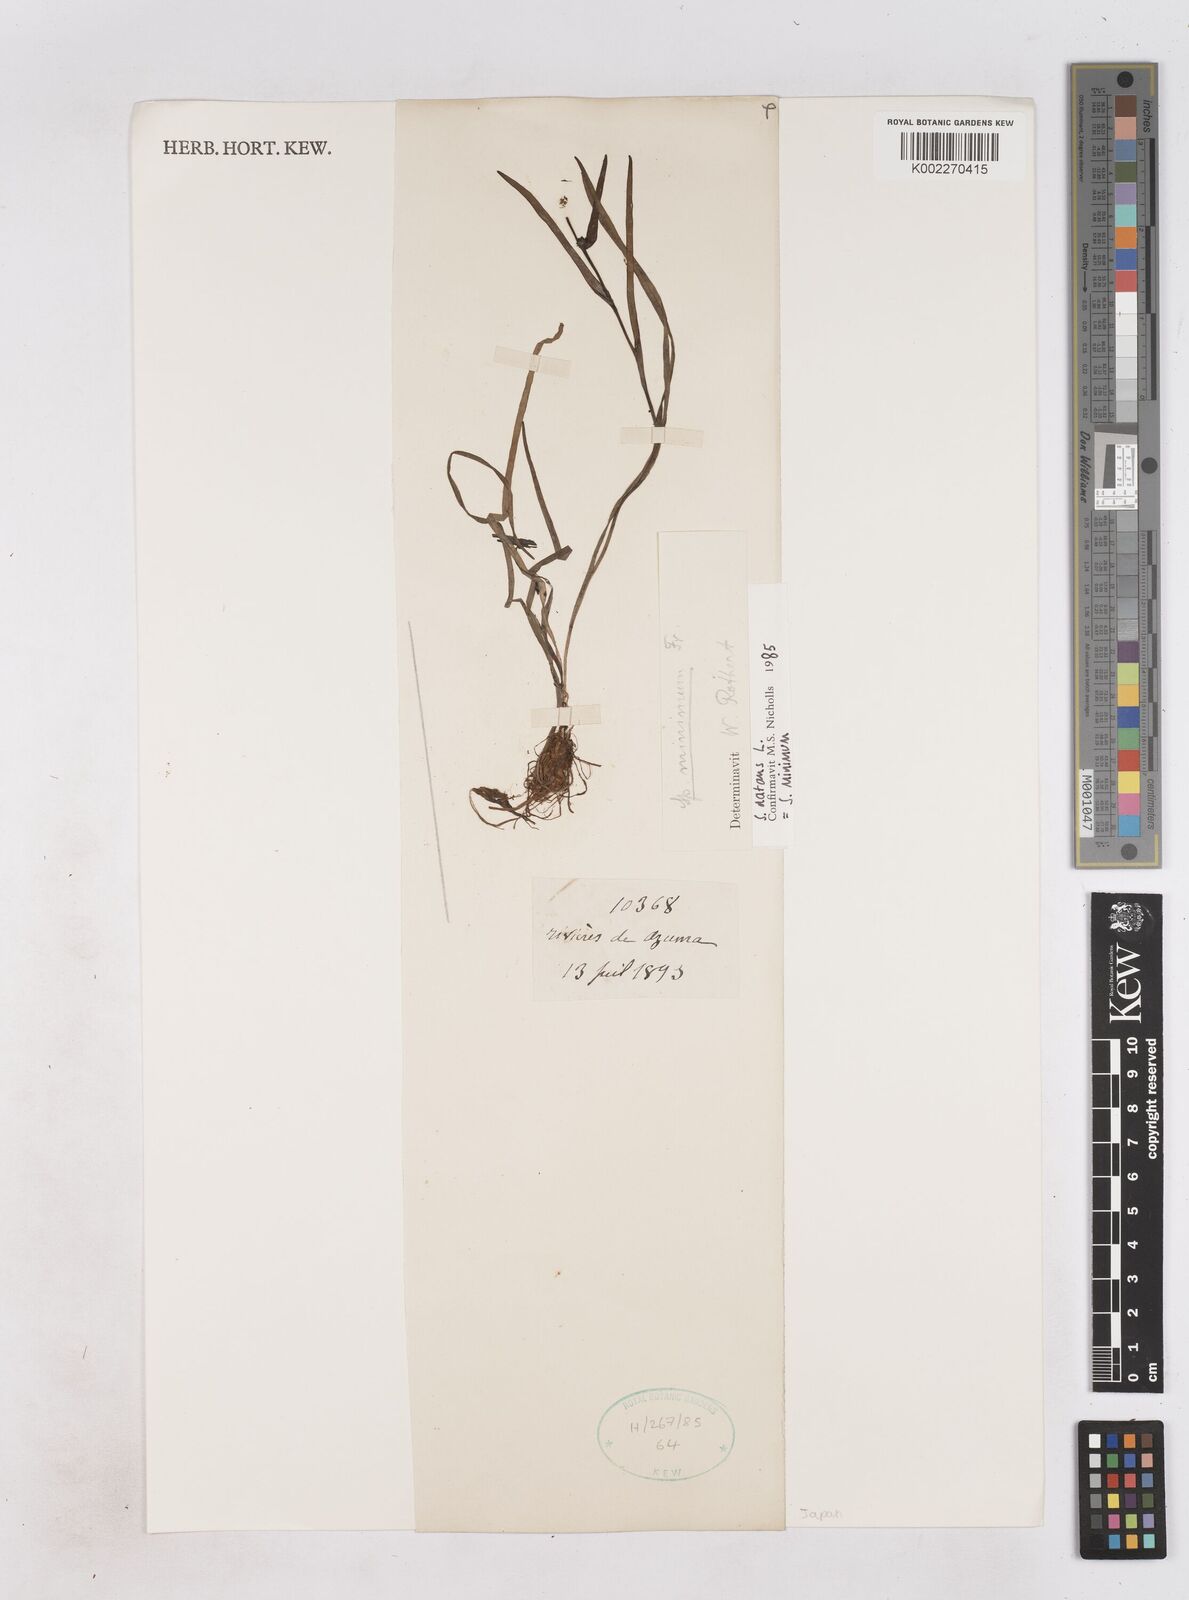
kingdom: Plantae
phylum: Tracheophyta
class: Liliopsida
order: Poales
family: Typhaceae
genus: Sparganium
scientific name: Sparganium natans
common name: Least bur-reed
